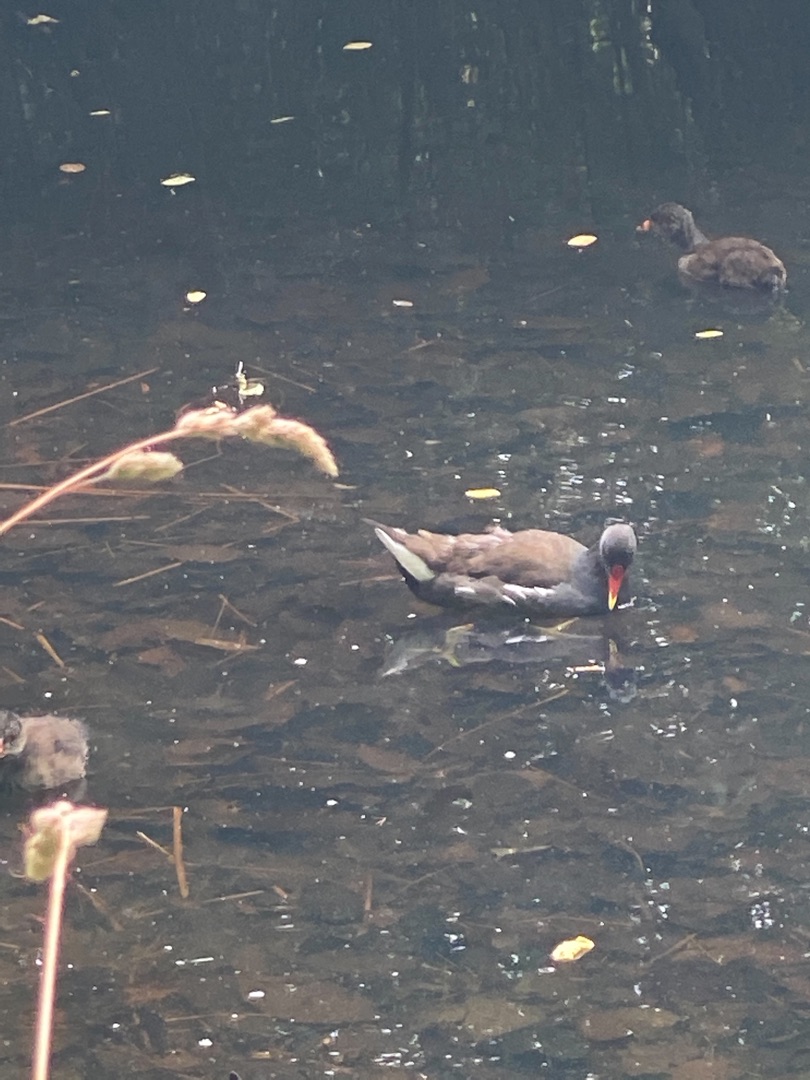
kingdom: Animalia
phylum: Chordata
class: Aves
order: Gruiformes
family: Rallidae
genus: Gallinula
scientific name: Gallinula chloropus
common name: Grønbenet rørhøne
